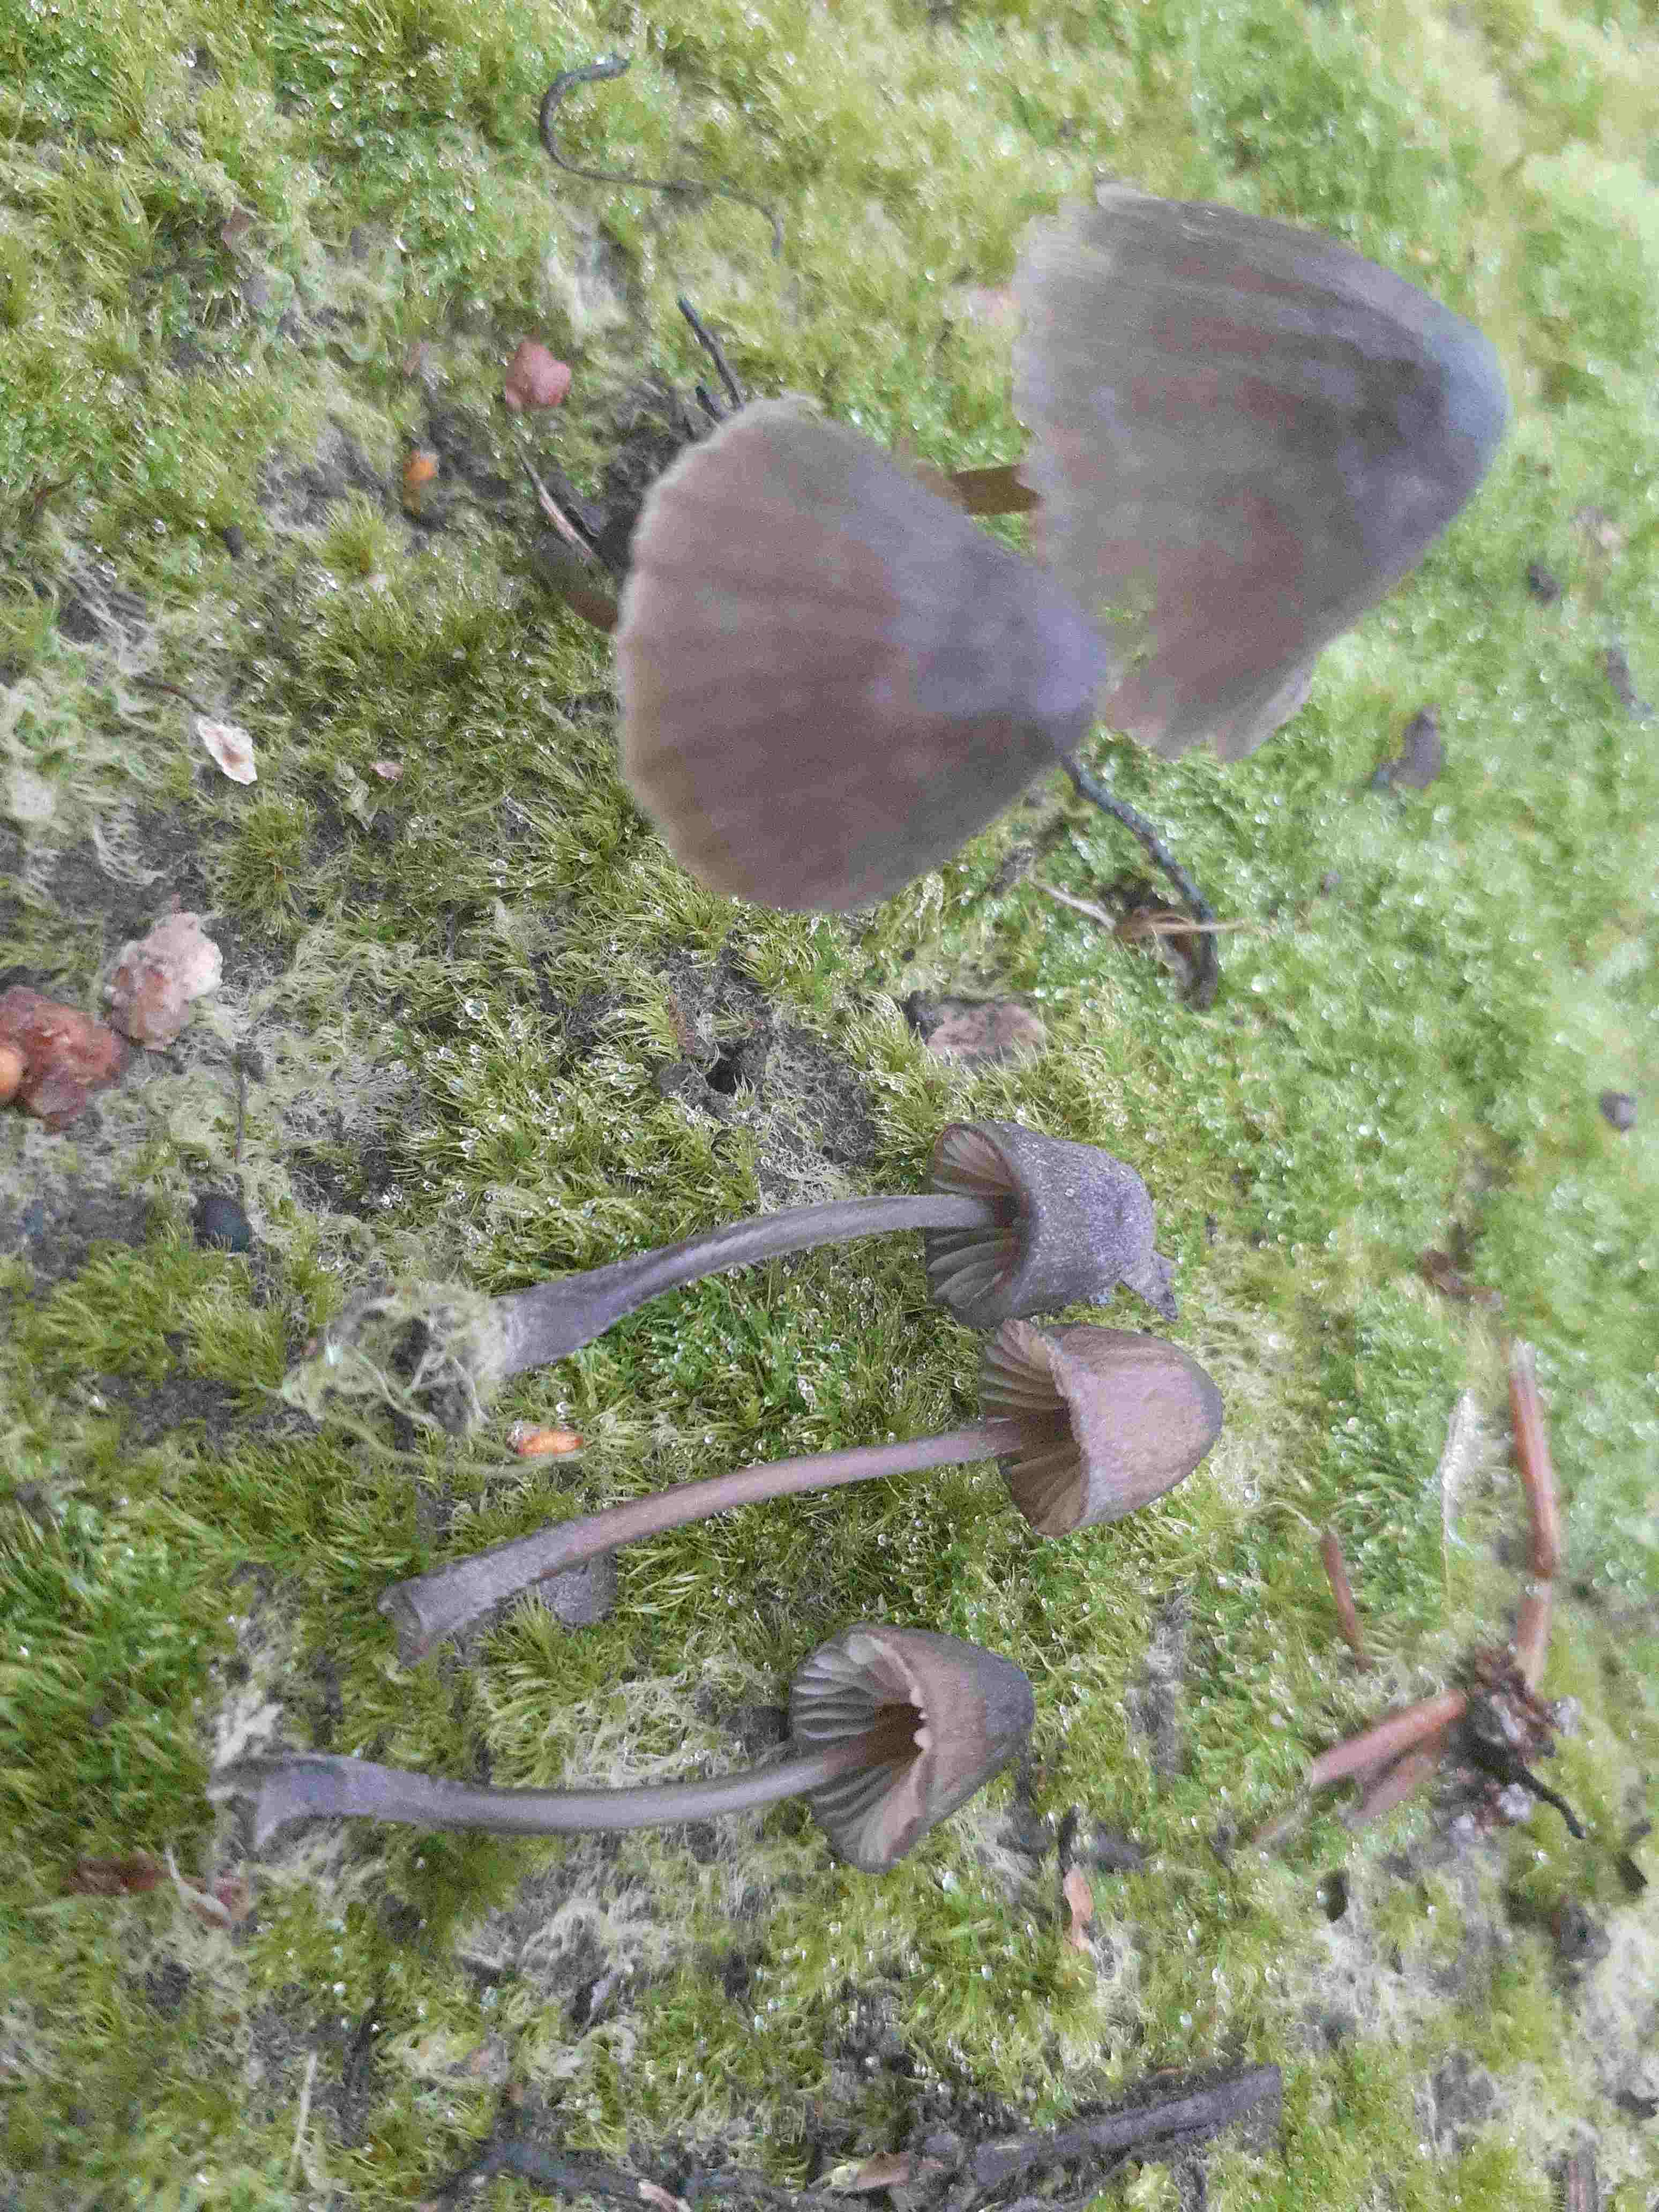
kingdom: Fungi
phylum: Basidiomycota
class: Agaricomycetes
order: Agaricales
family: Mycenaceae
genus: Mycena
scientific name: Mycena galopus
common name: hvidmælket huesvamp
